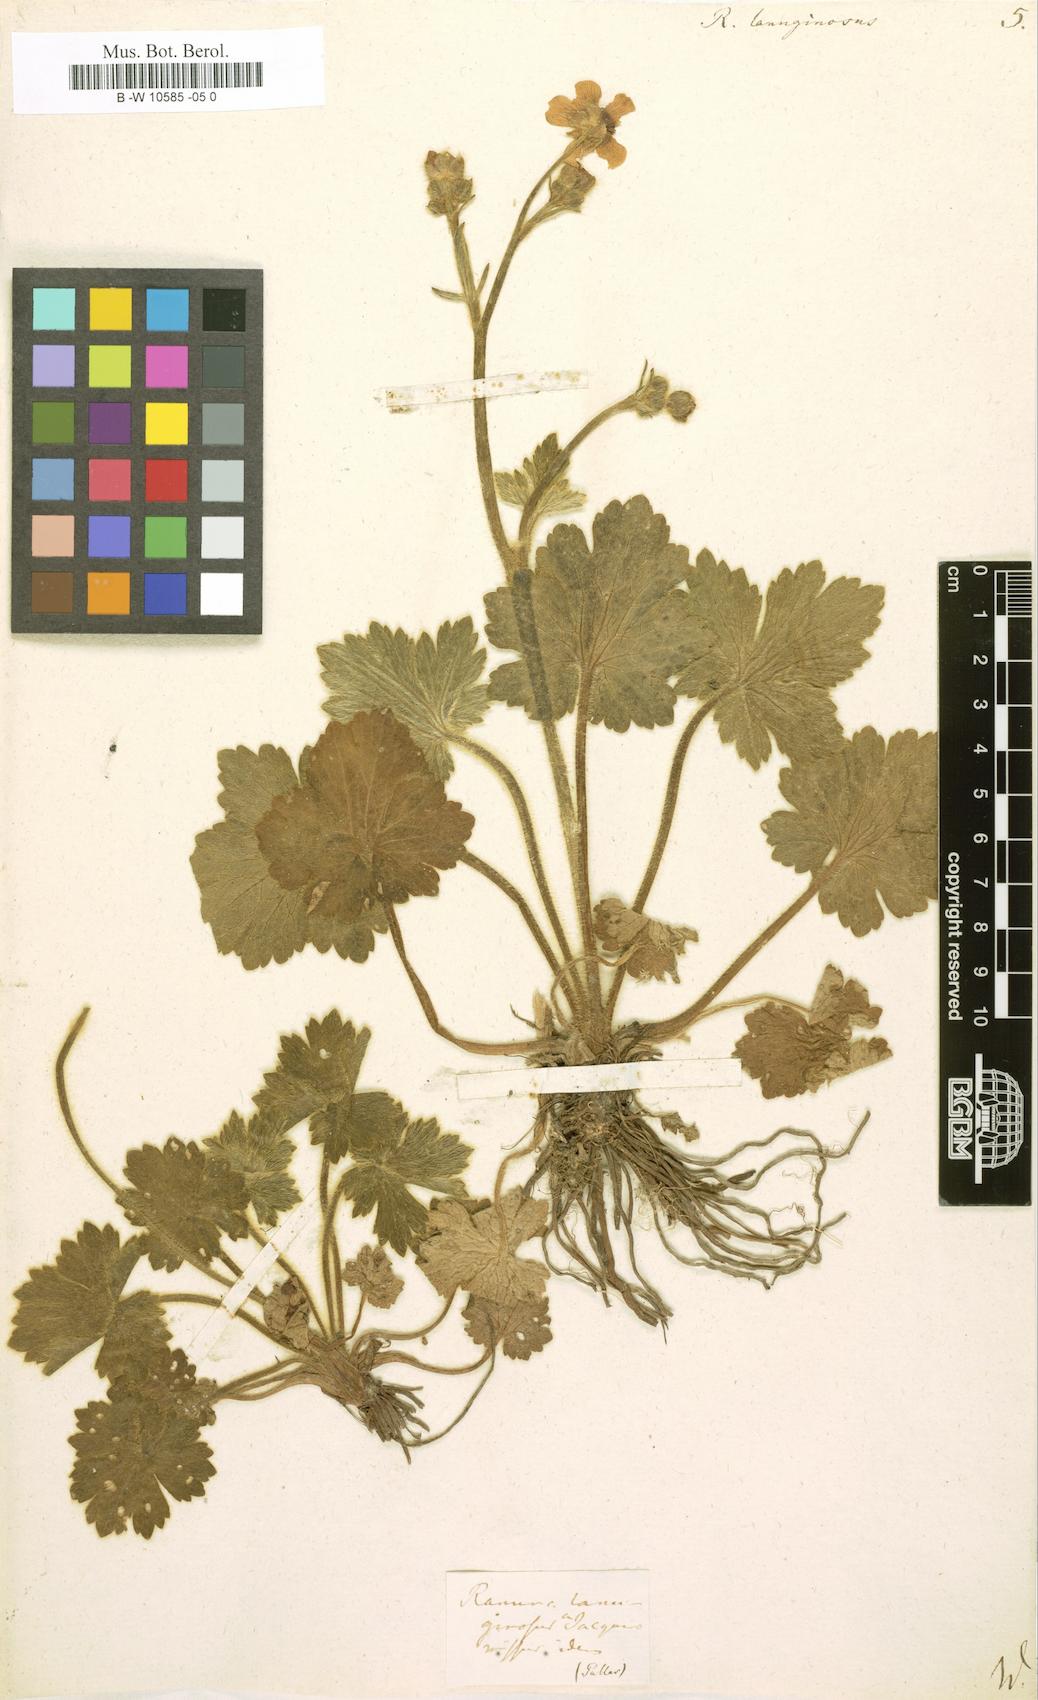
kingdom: Plantae
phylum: Tracheophyta
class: Magnoliopsida
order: Ranunculales
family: Ranunculaceae
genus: Ranunculus
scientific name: Ranunculus lanuginosus
